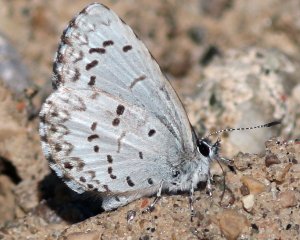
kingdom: Animalia
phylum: Arthropoda
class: Insecta
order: Lepidoptera
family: Lycaenidae
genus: Celastrina
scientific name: Celastrina lucia
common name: Northern Spring Azure
